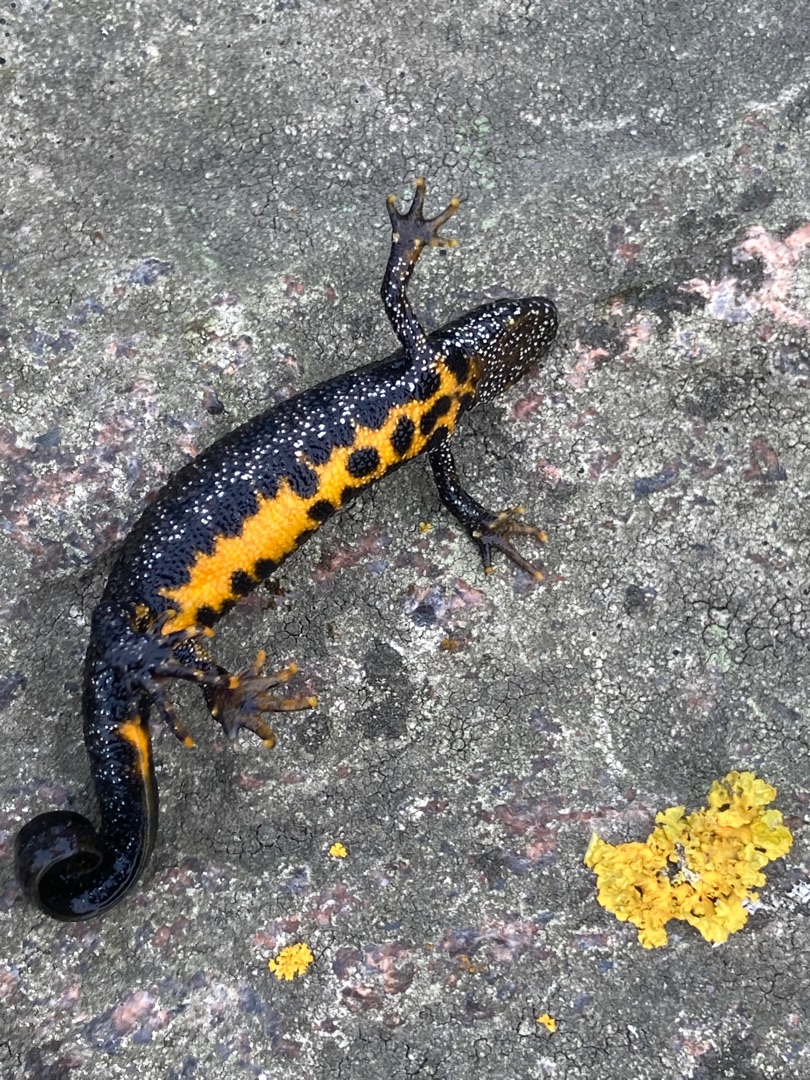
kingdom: Animalia
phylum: Chordata
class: Amphibia
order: Caudata
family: Salamandridae
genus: Triturus
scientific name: Triturus cristatus
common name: Stor vandsalamander
